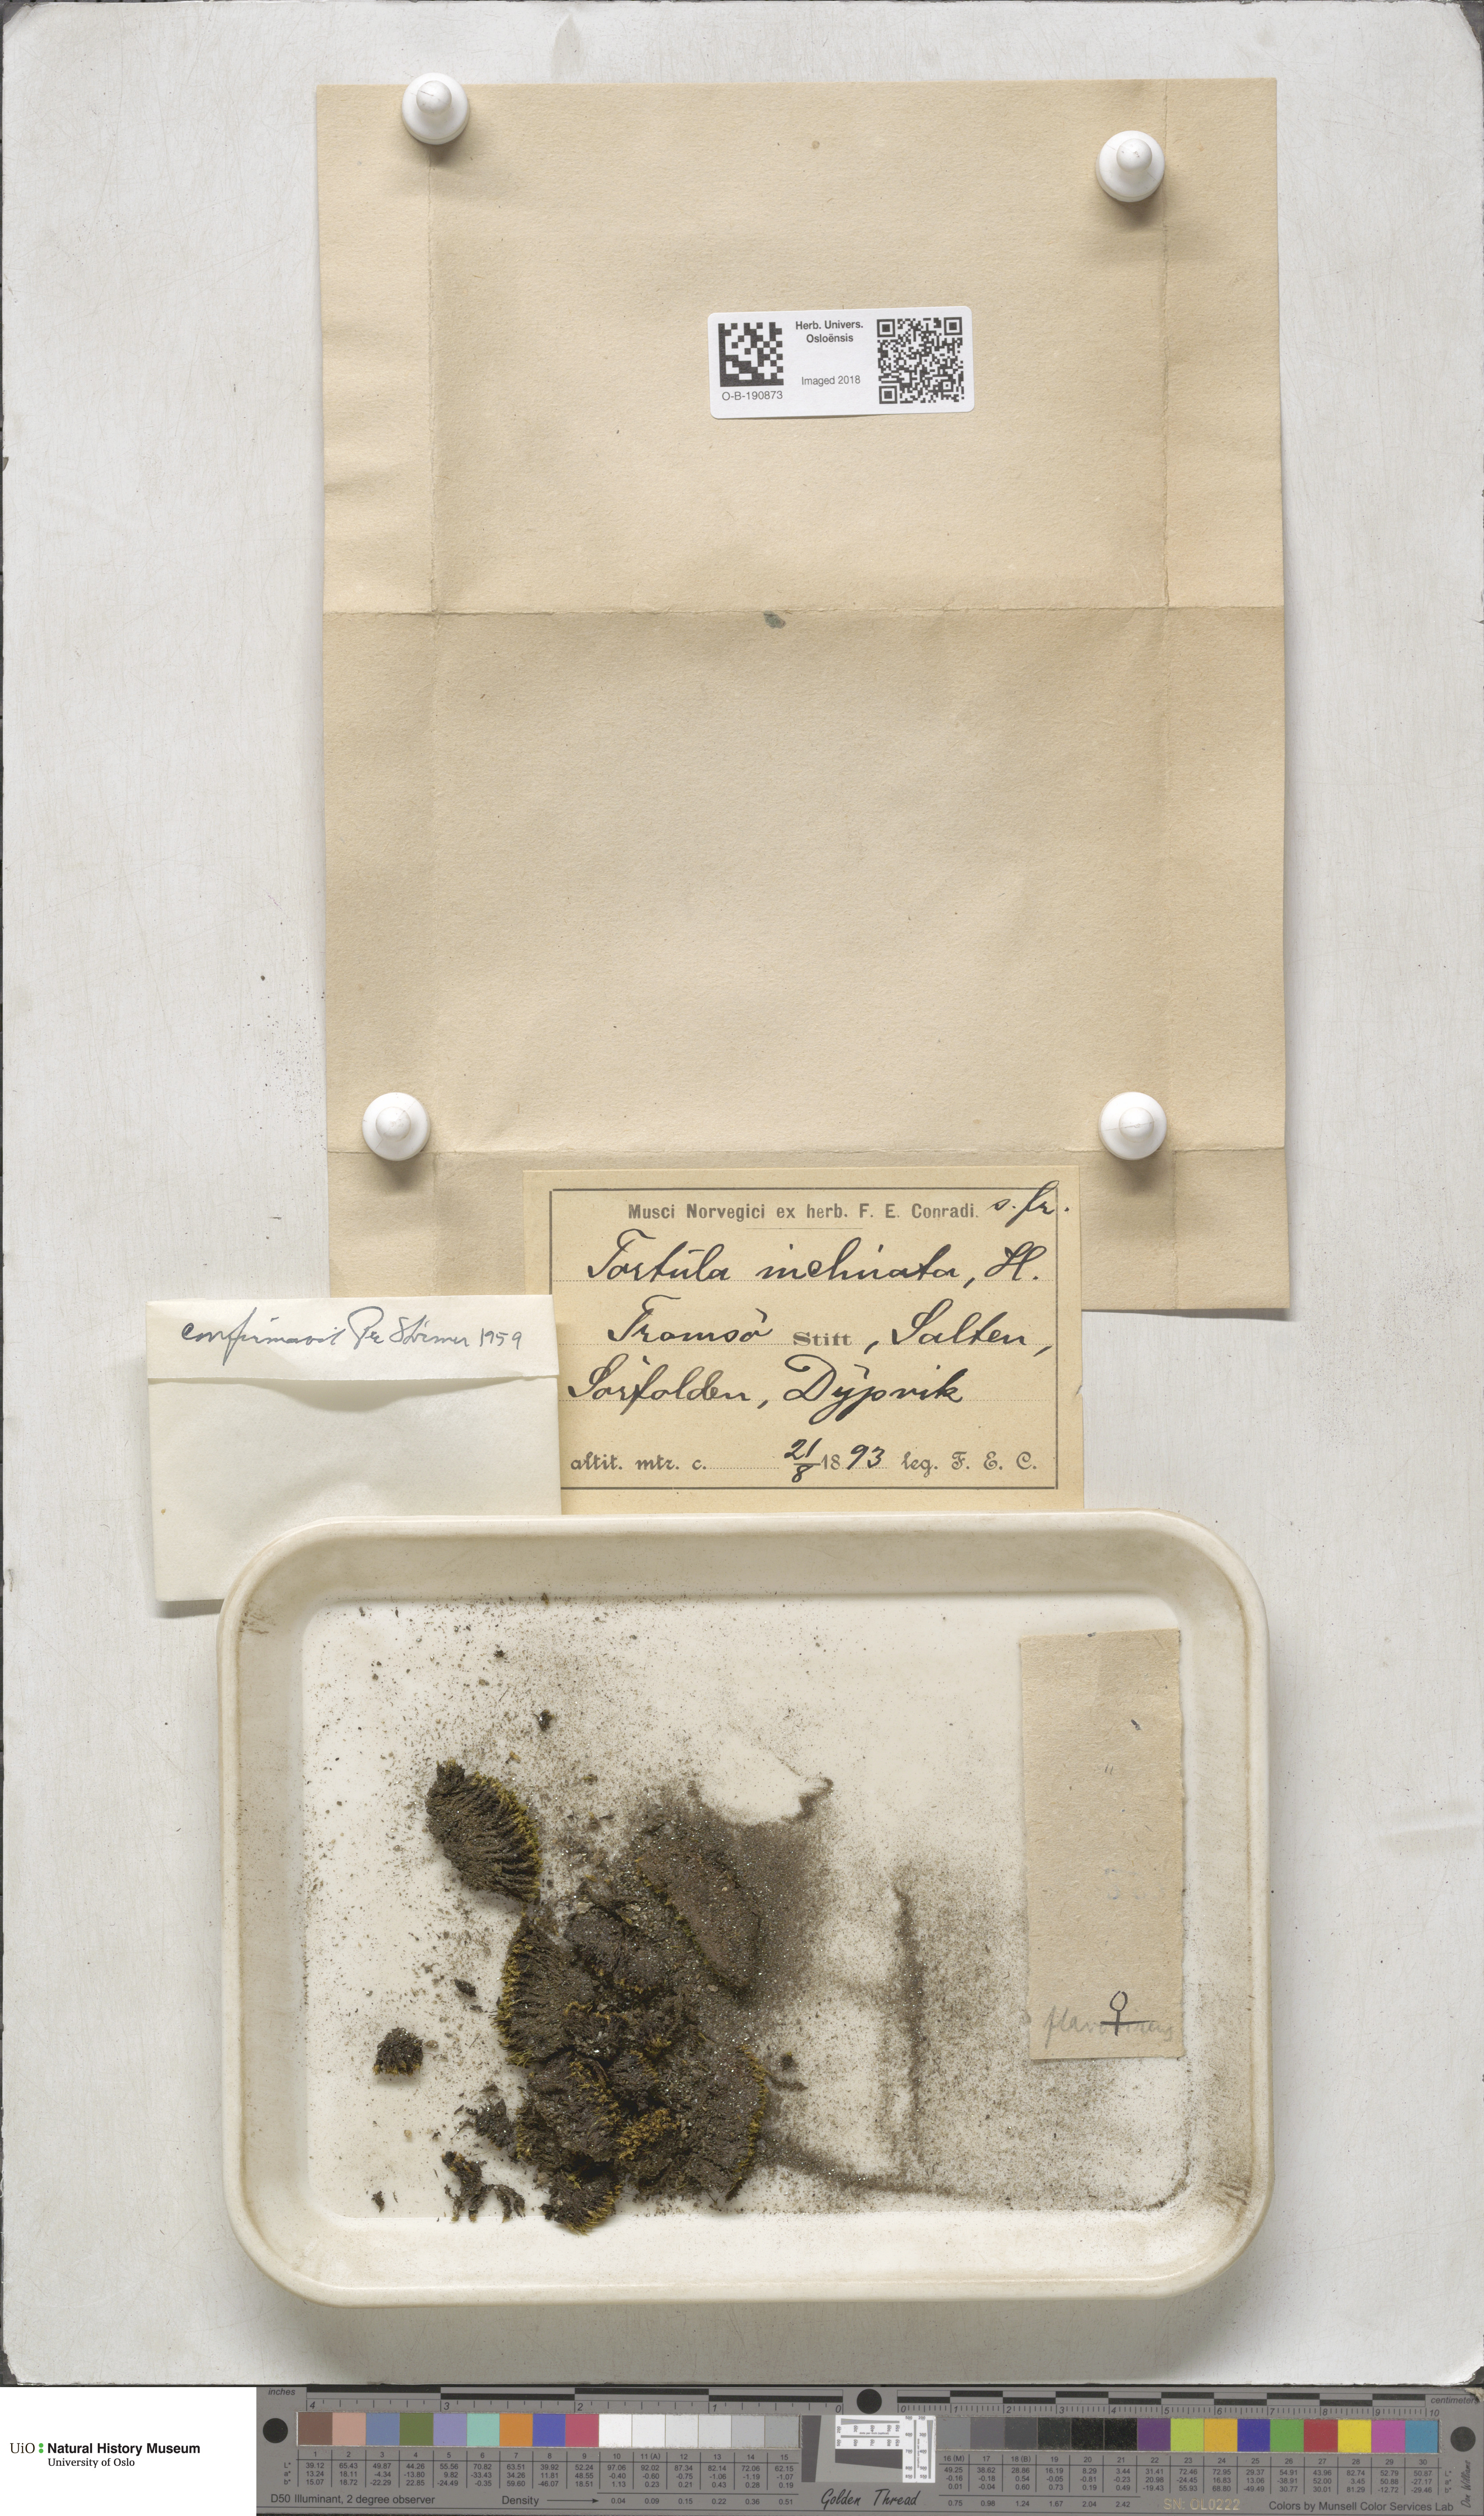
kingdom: Plantae
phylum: Bryophyta
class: Bryopsida
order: Pottiales
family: Pottiaceae
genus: Tortella
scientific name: Tortella inclinata
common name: Inclined twisted moss
